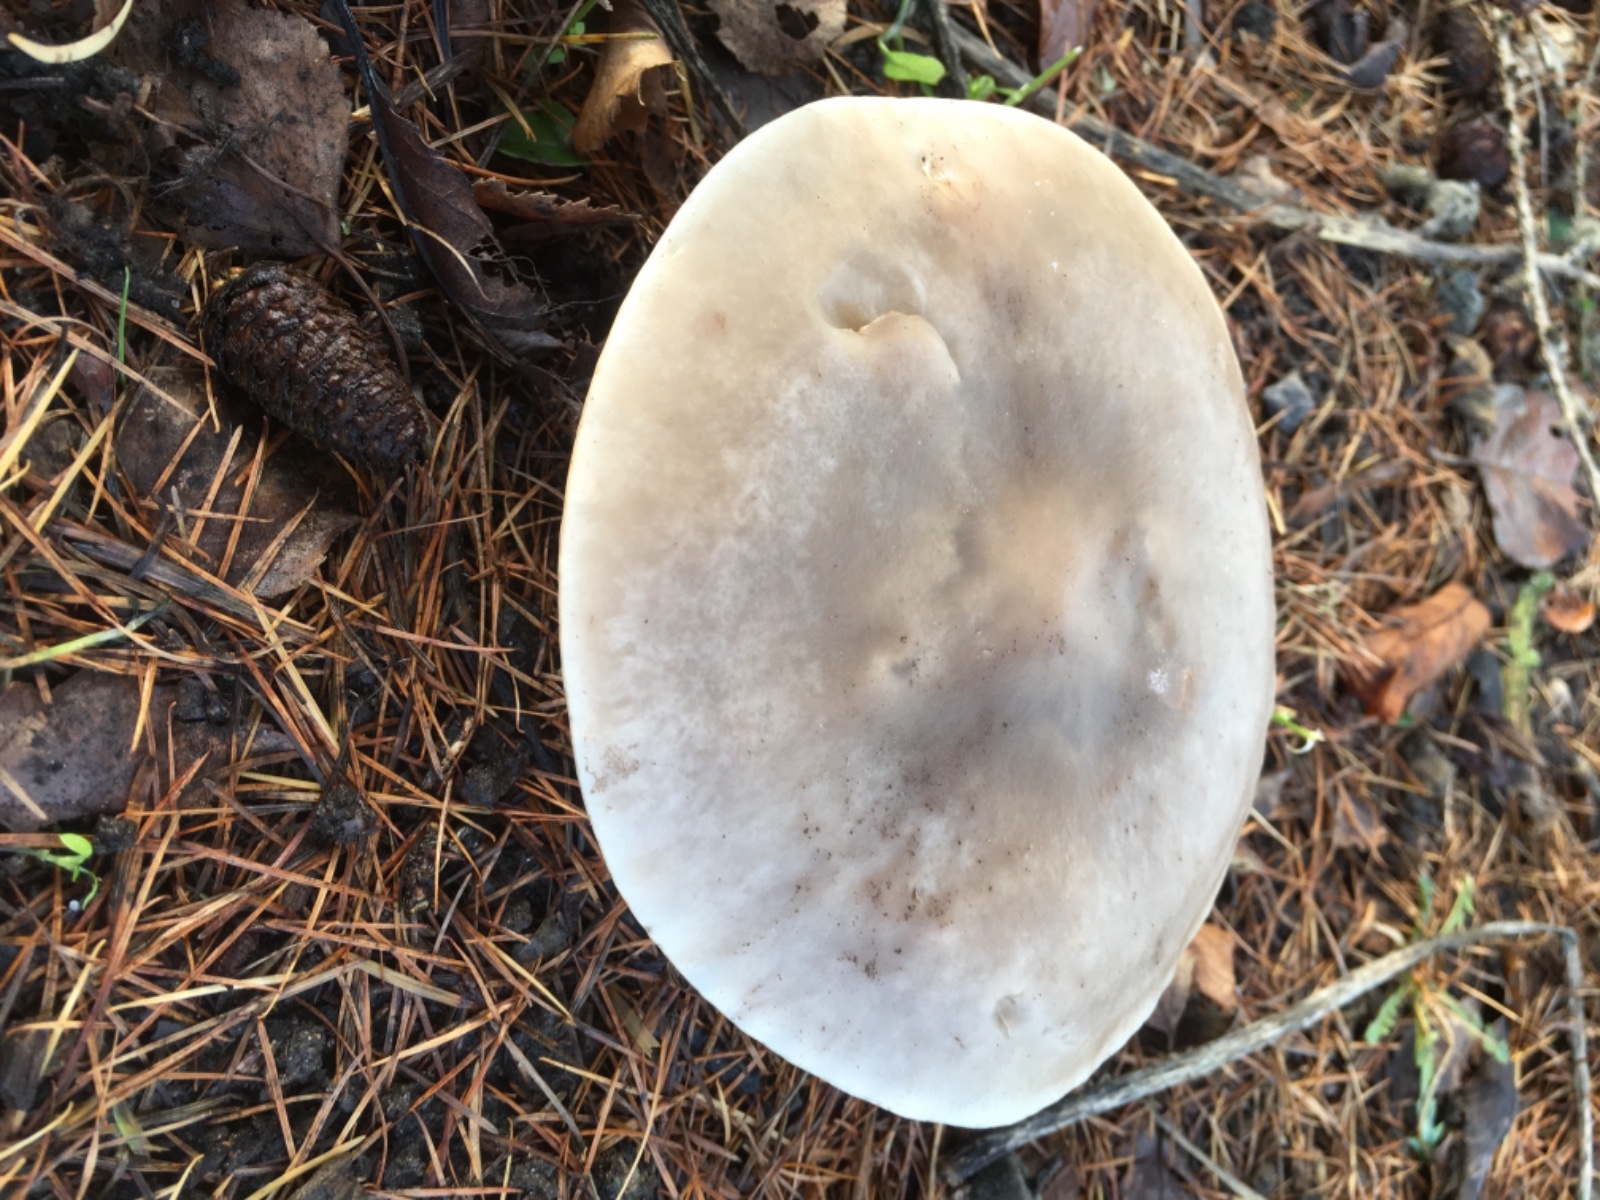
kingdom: Fungi
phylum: Basidiomycota
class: Agaricomycetes
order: Agaricales
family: Tricholomataceae
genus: Lepista
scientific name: Lepista personata
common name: bleg hekseringshat
